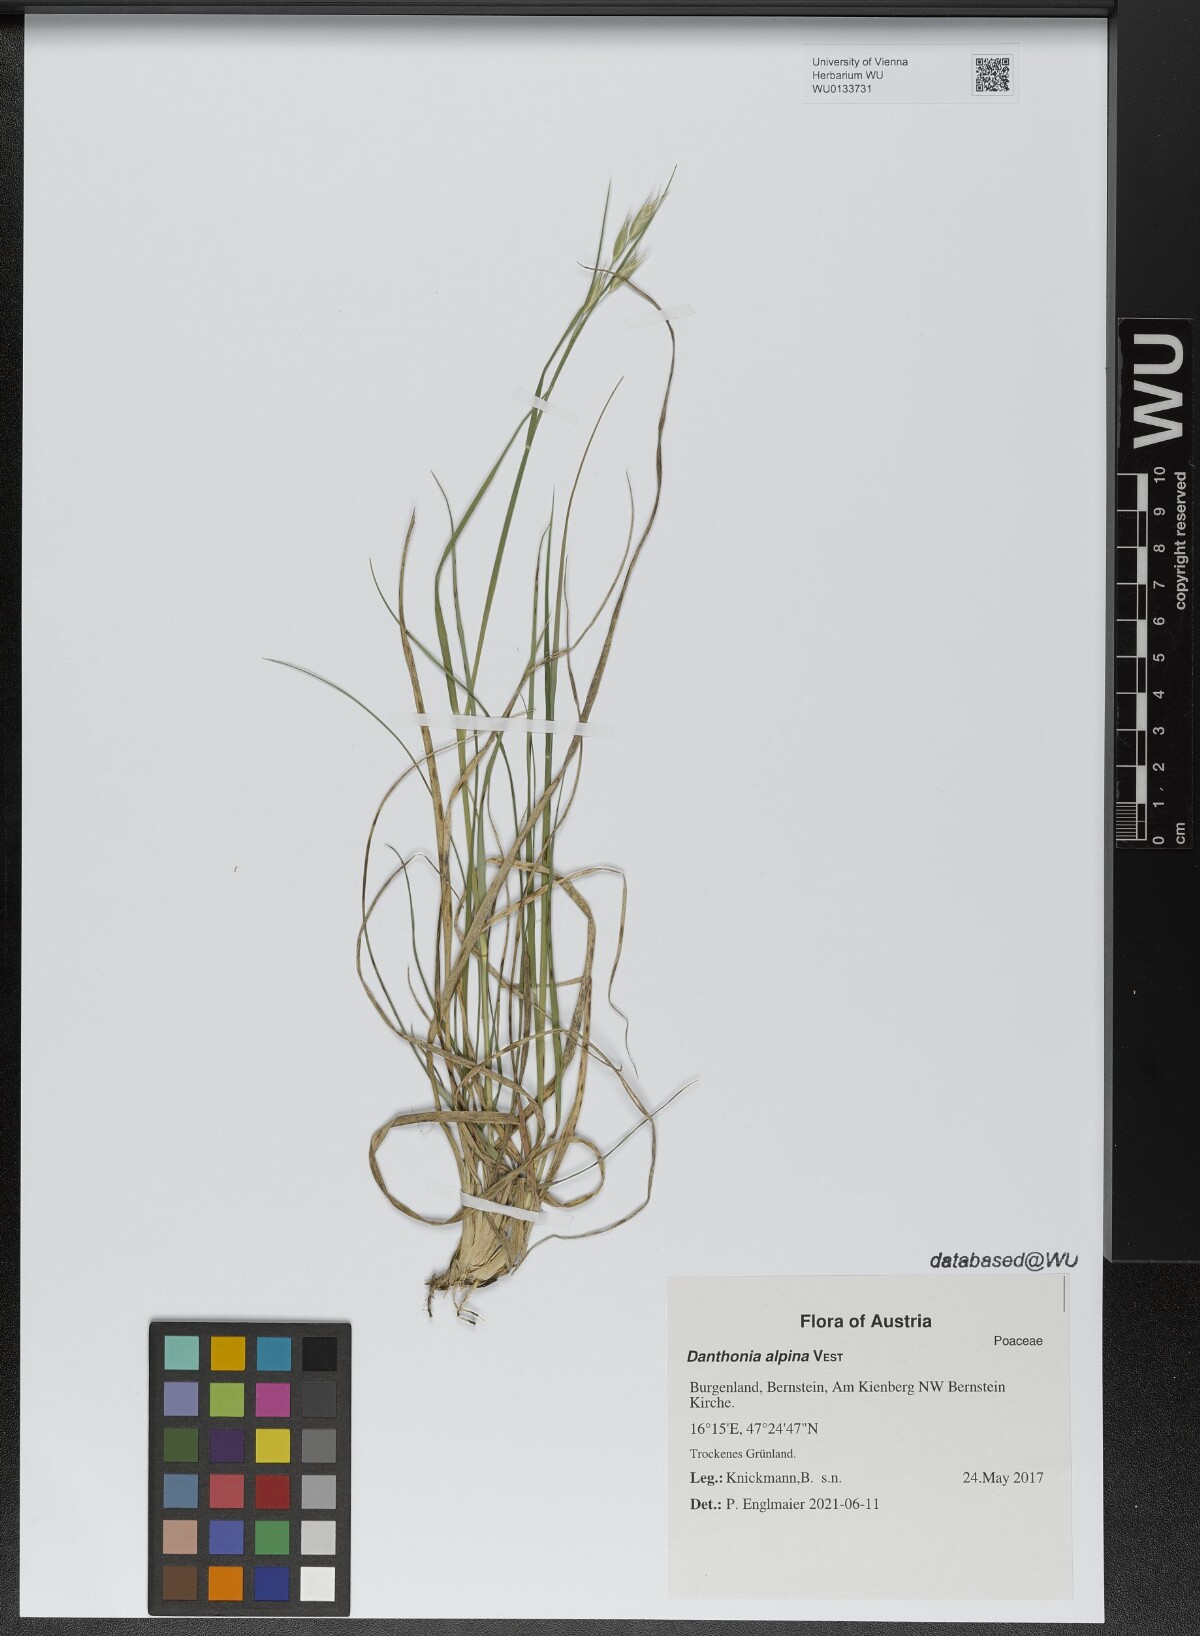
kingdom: Plantae
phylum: Tracheophyta
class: Liliopsida
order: Poales
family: Poaceae
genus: Danthonia
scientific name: Danthonia alpina
